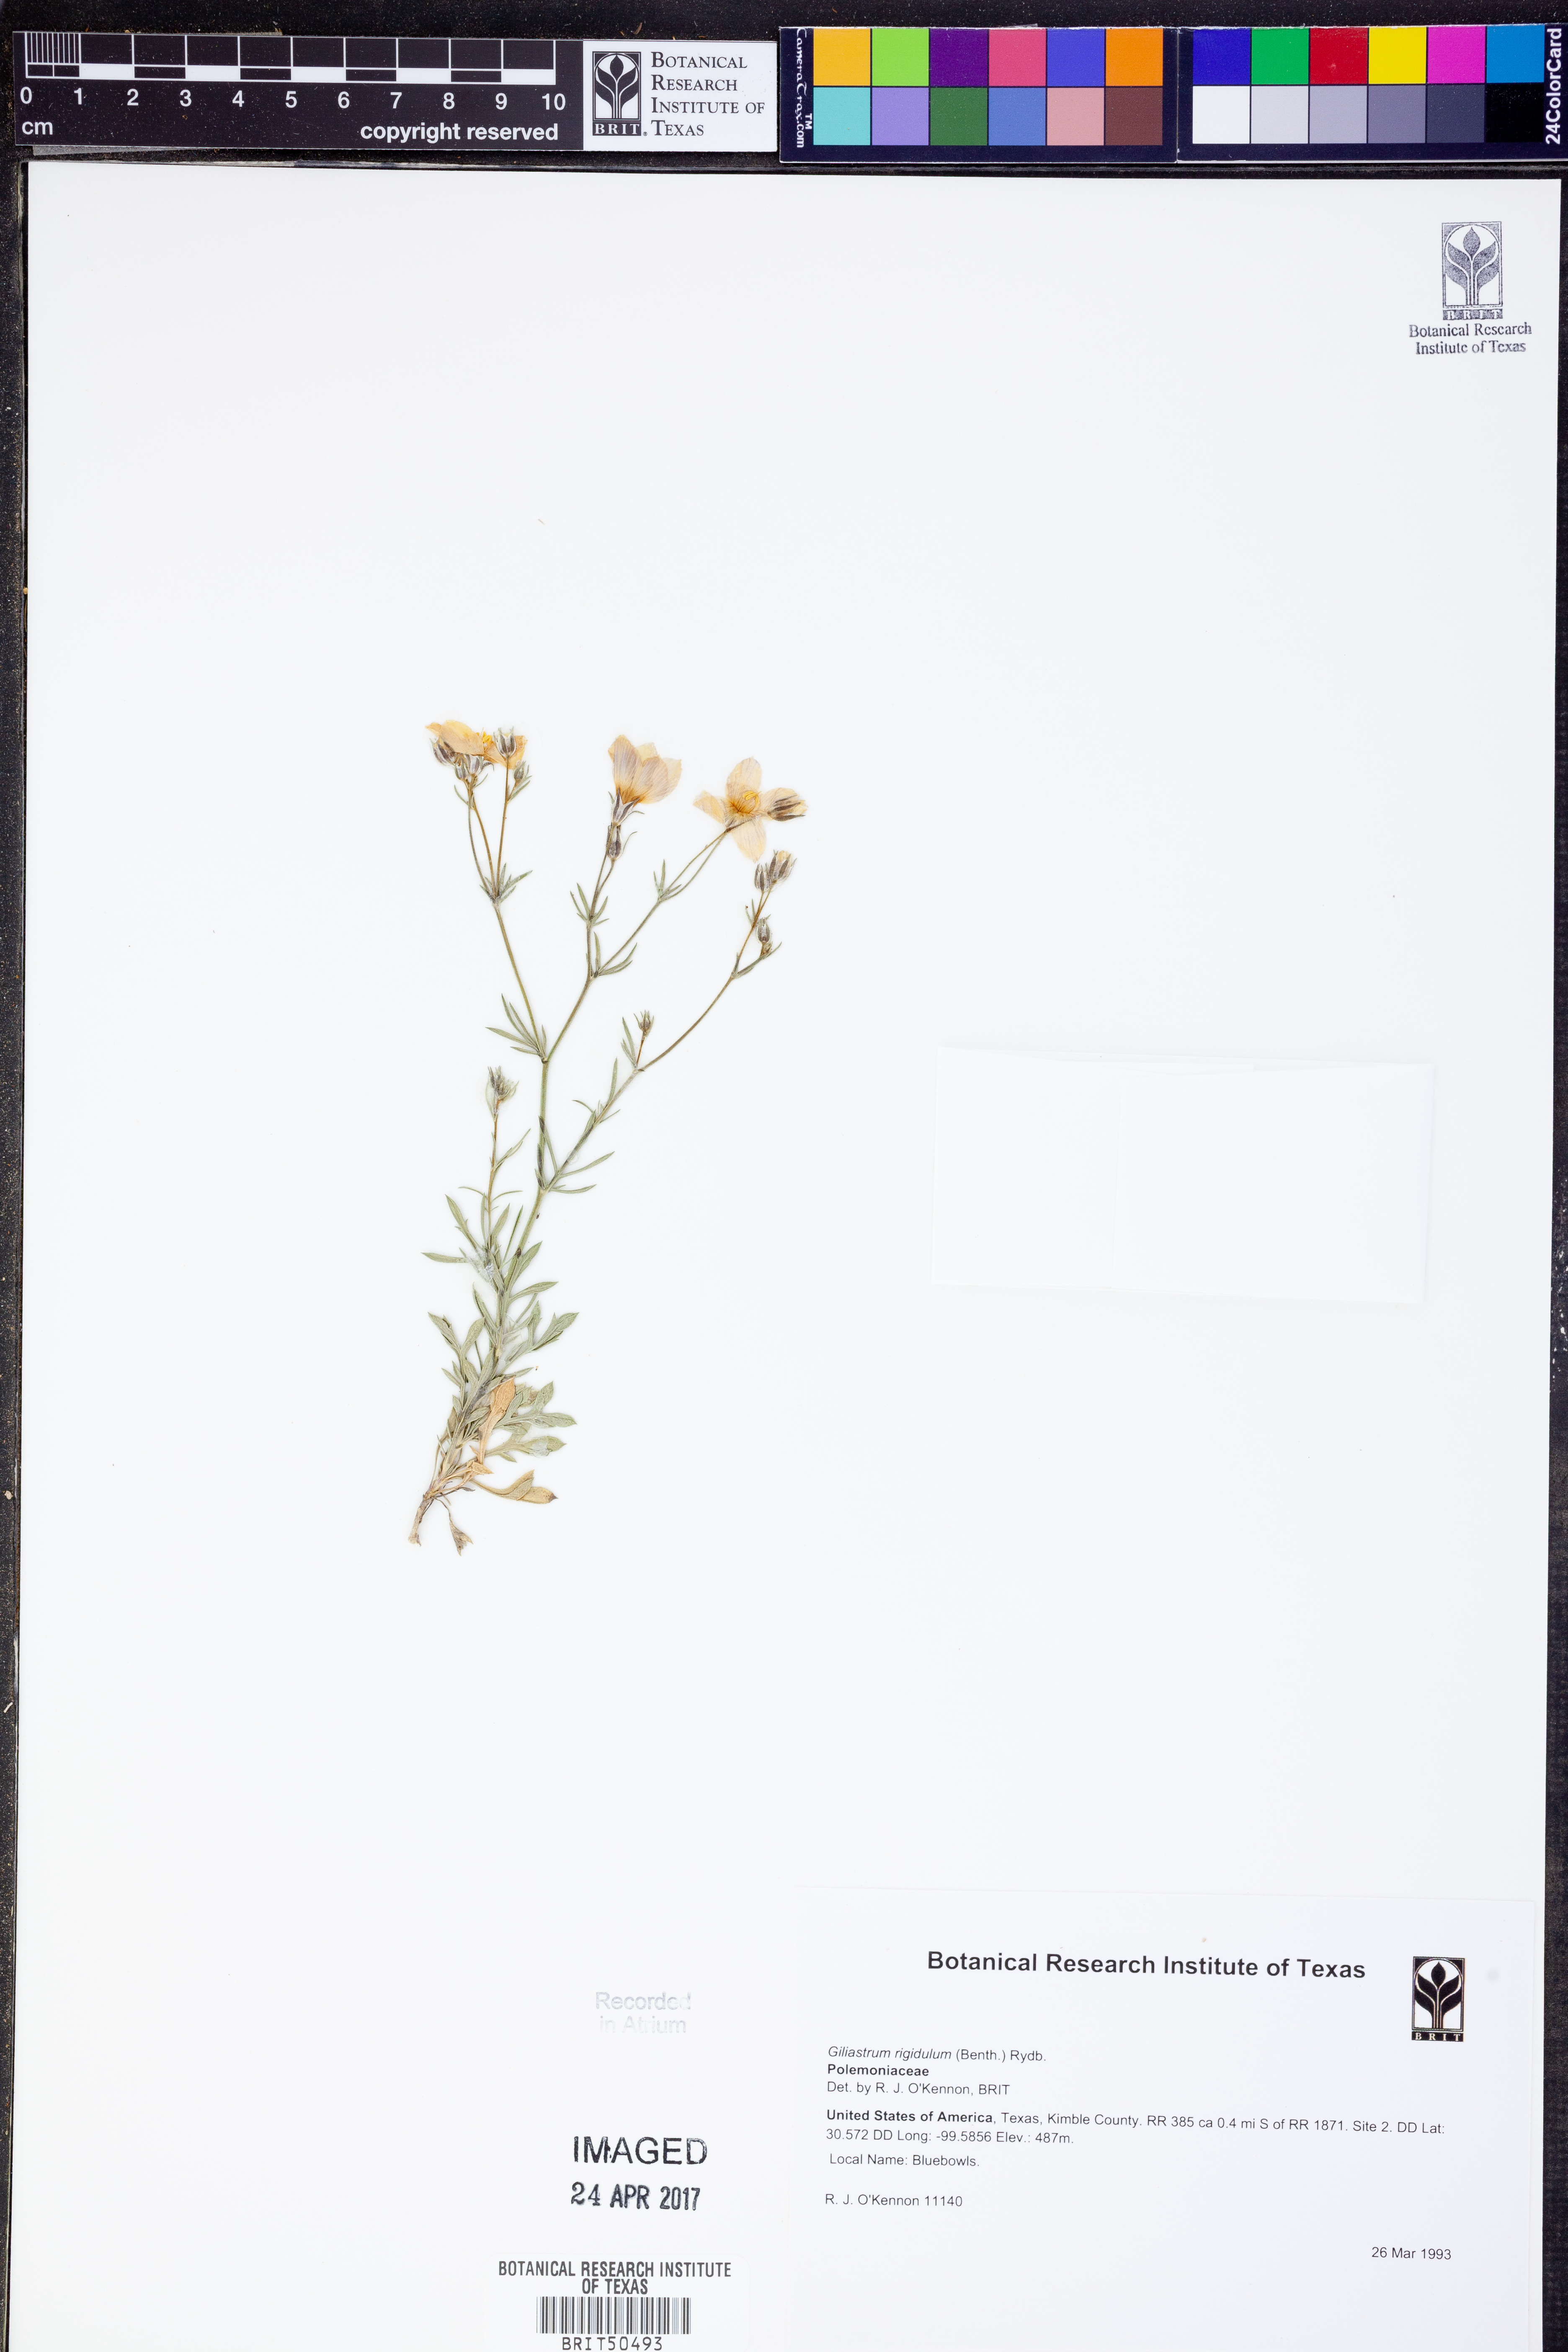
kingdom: Plantae
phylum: Tracheophyta
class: Magnoliopsida
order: Ericales
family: Polemoniaceae
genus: Giliastrum
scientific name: Giliastrum rigidulum
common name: Bluebowls
